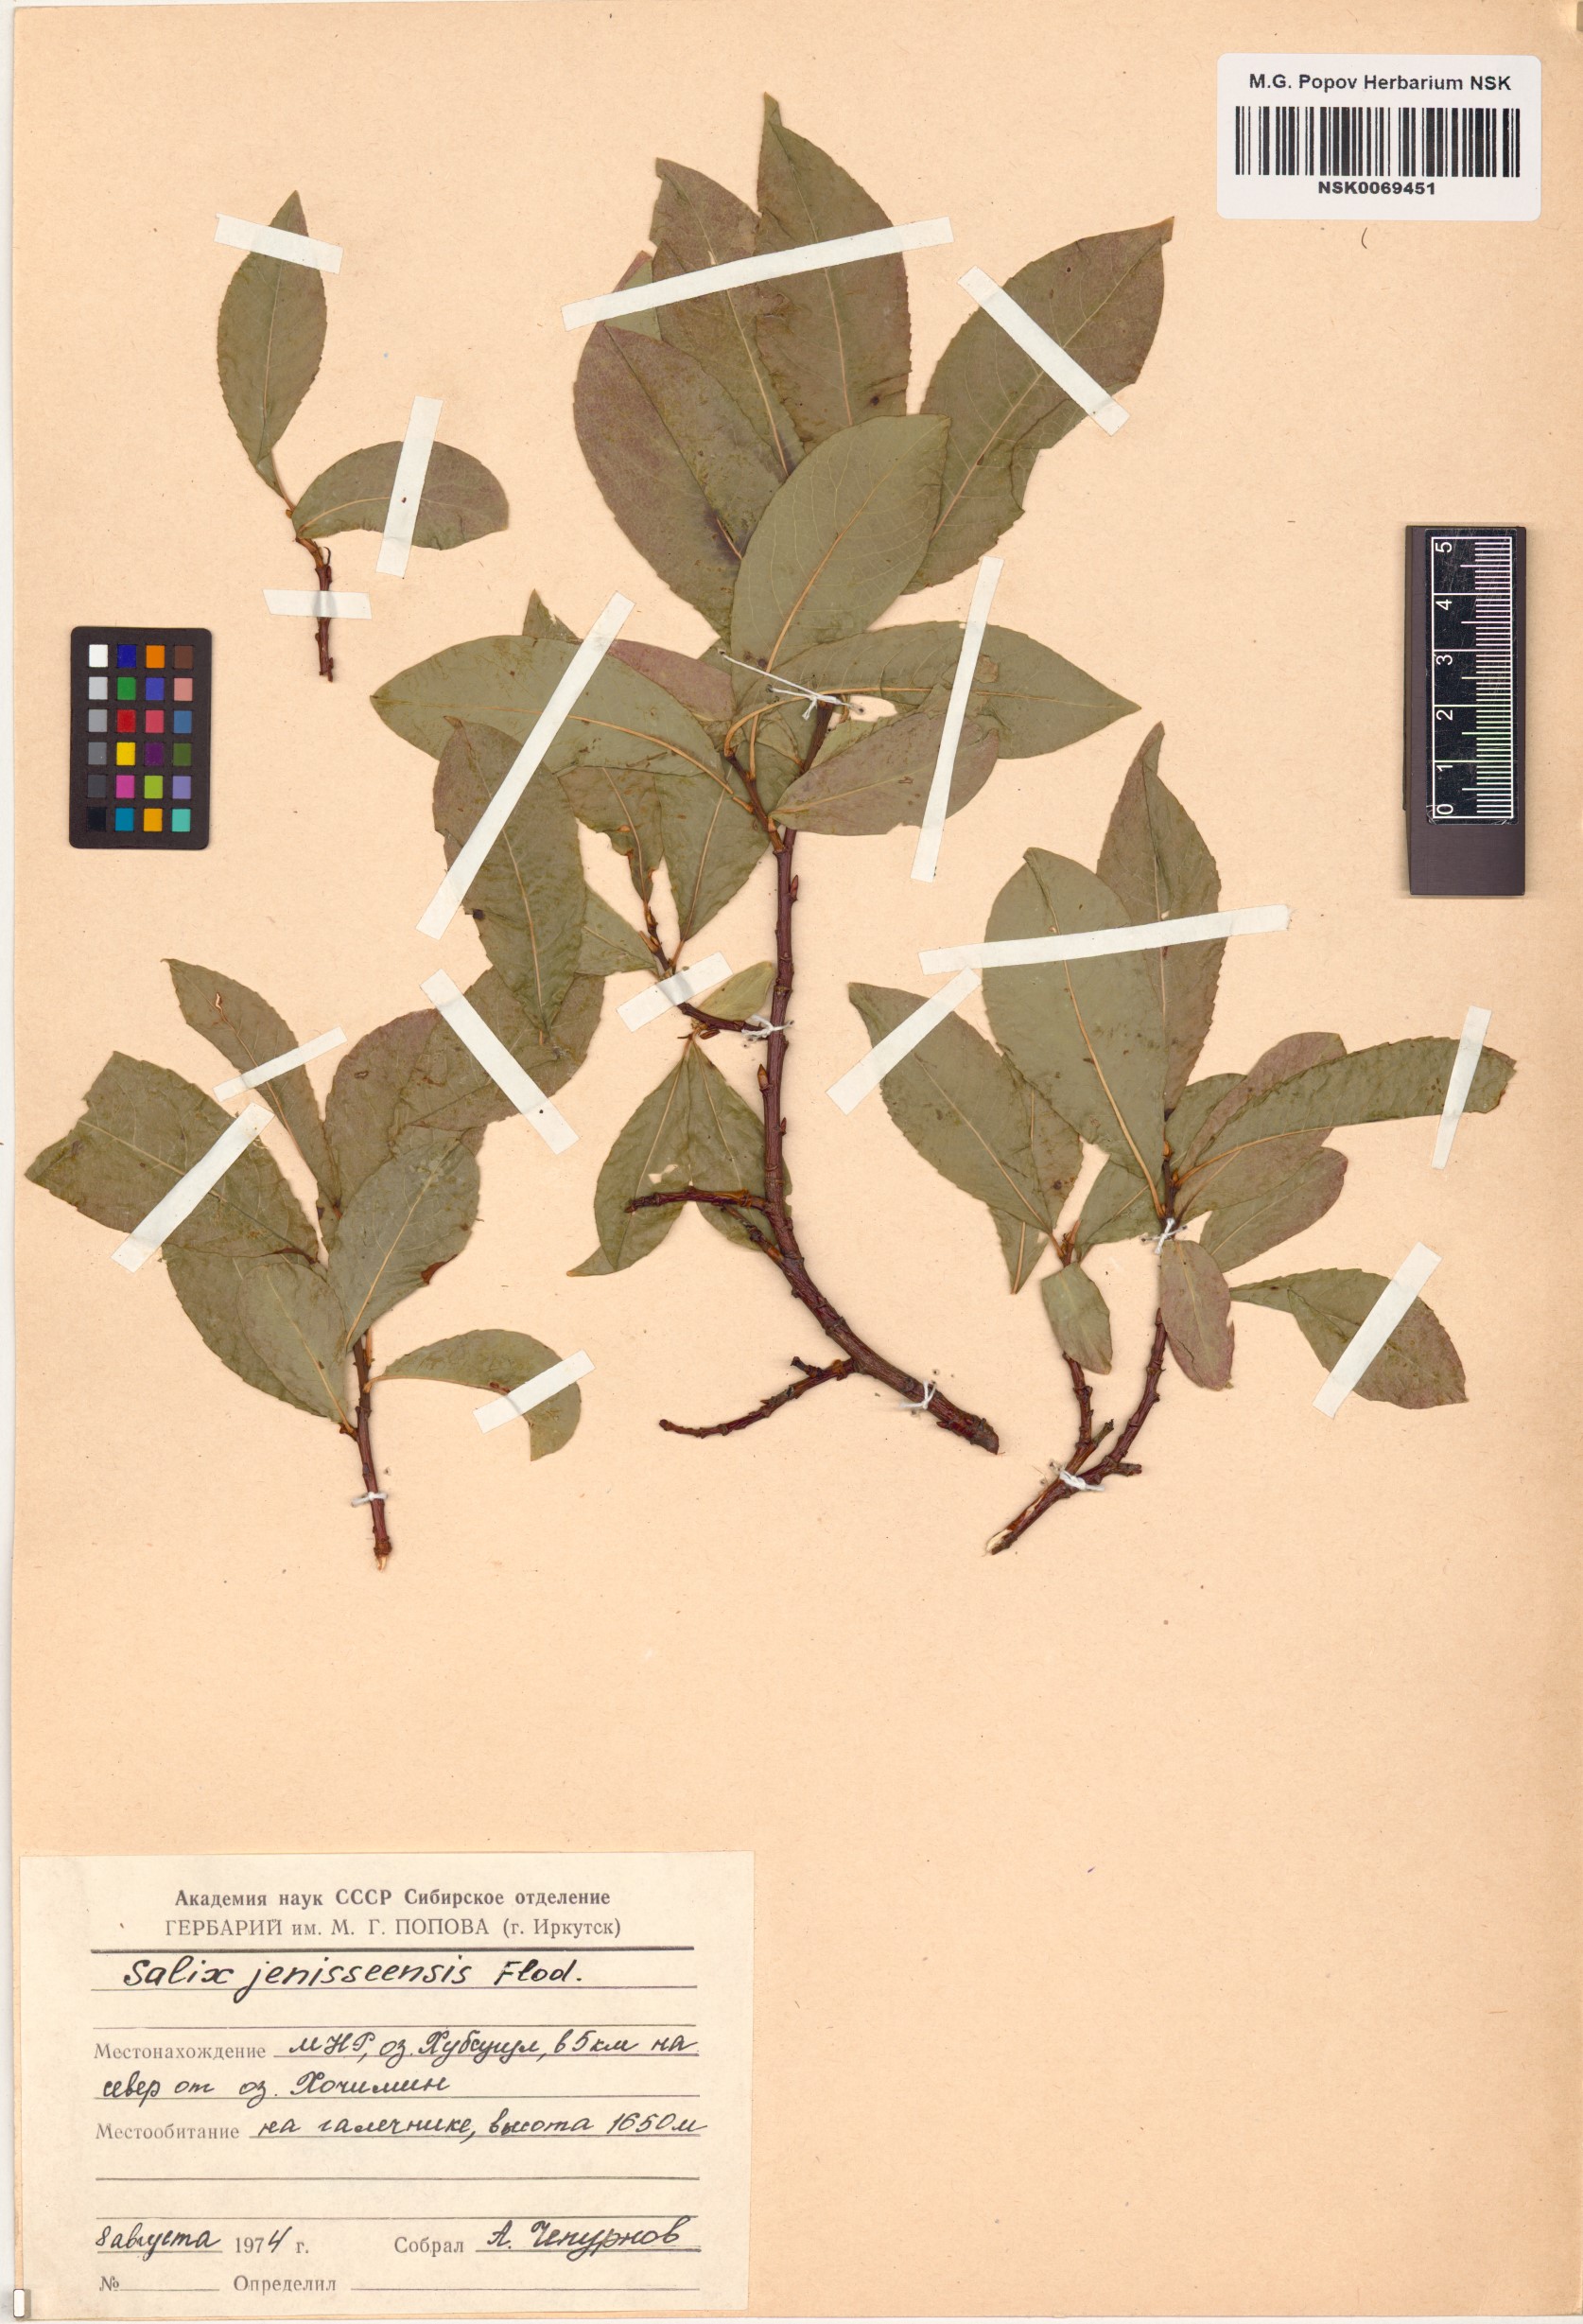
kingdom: Plantae
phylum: Tracheophyta
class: Magnoliopsida
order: Malpighiales
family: Salicaceae
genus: Salix
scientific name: Salix jenisseensis
